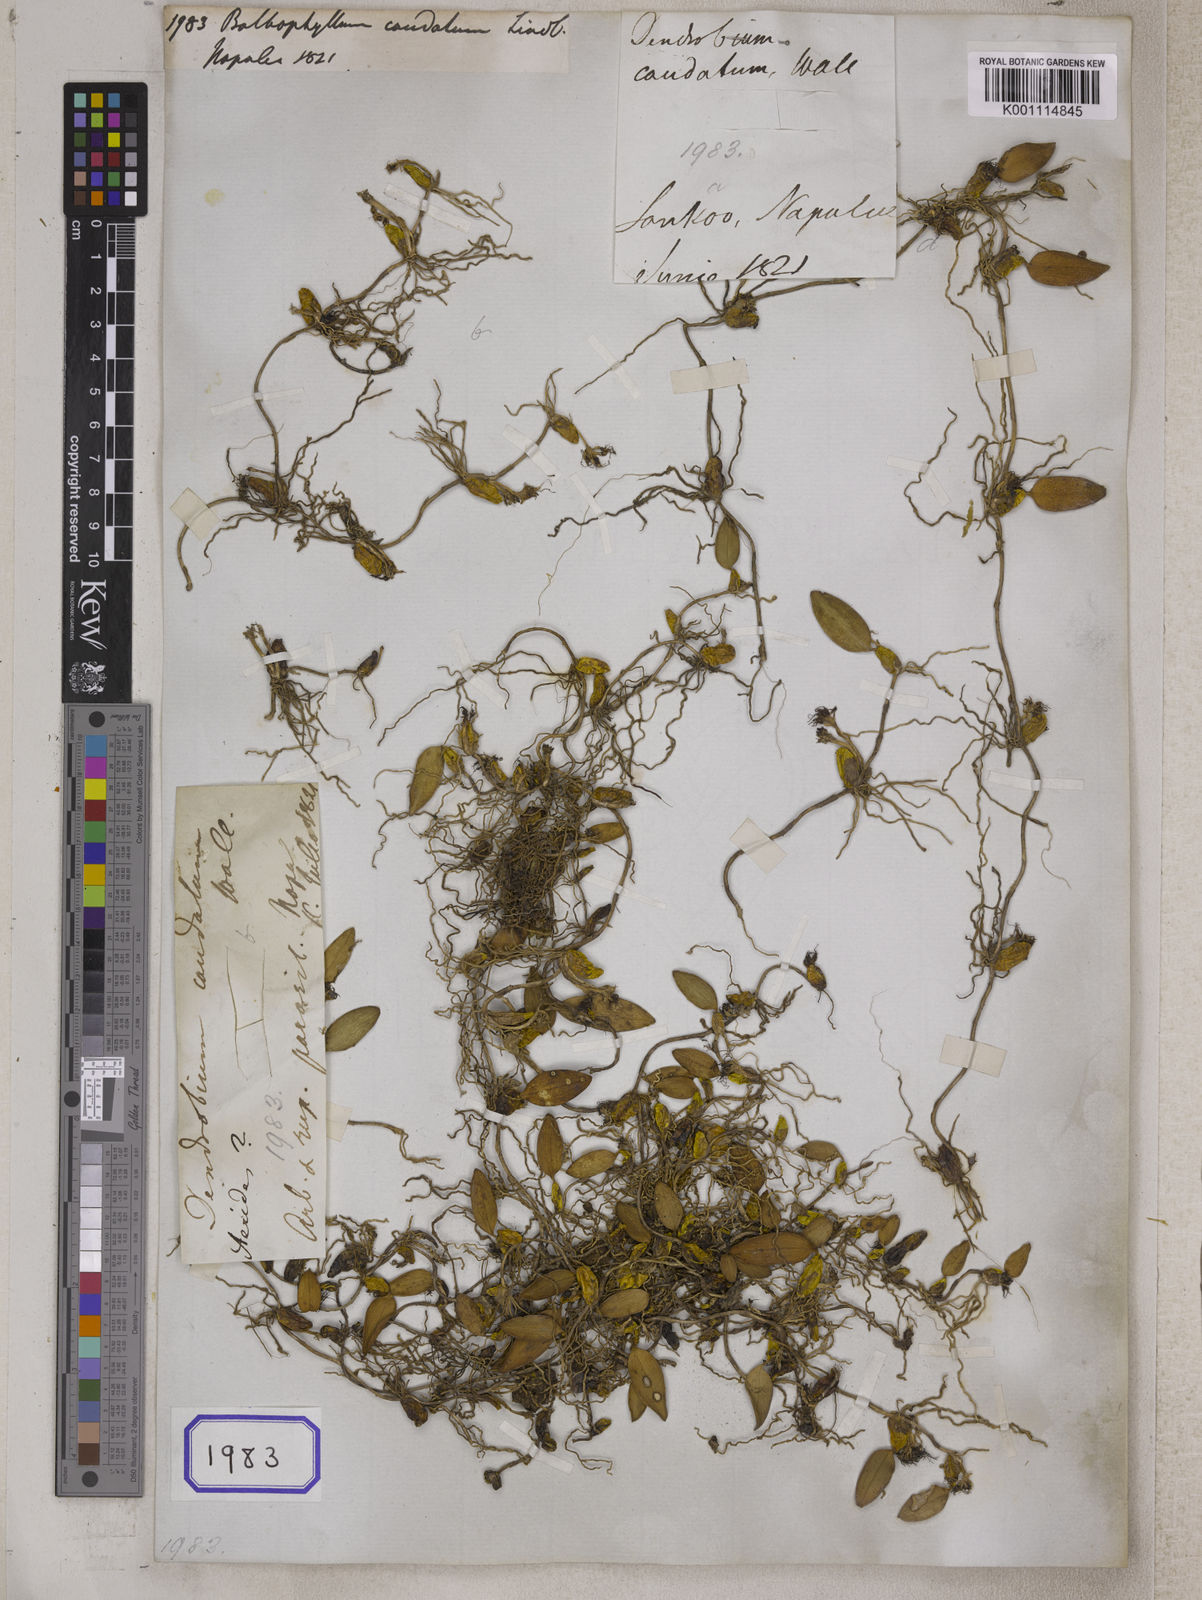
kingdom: Plantae
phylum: Tracheophyta
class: Liliopsida
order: Asparagales
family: Orchidaceae
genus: Bulbophyllum
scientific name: Bulbophyllum caudatum
